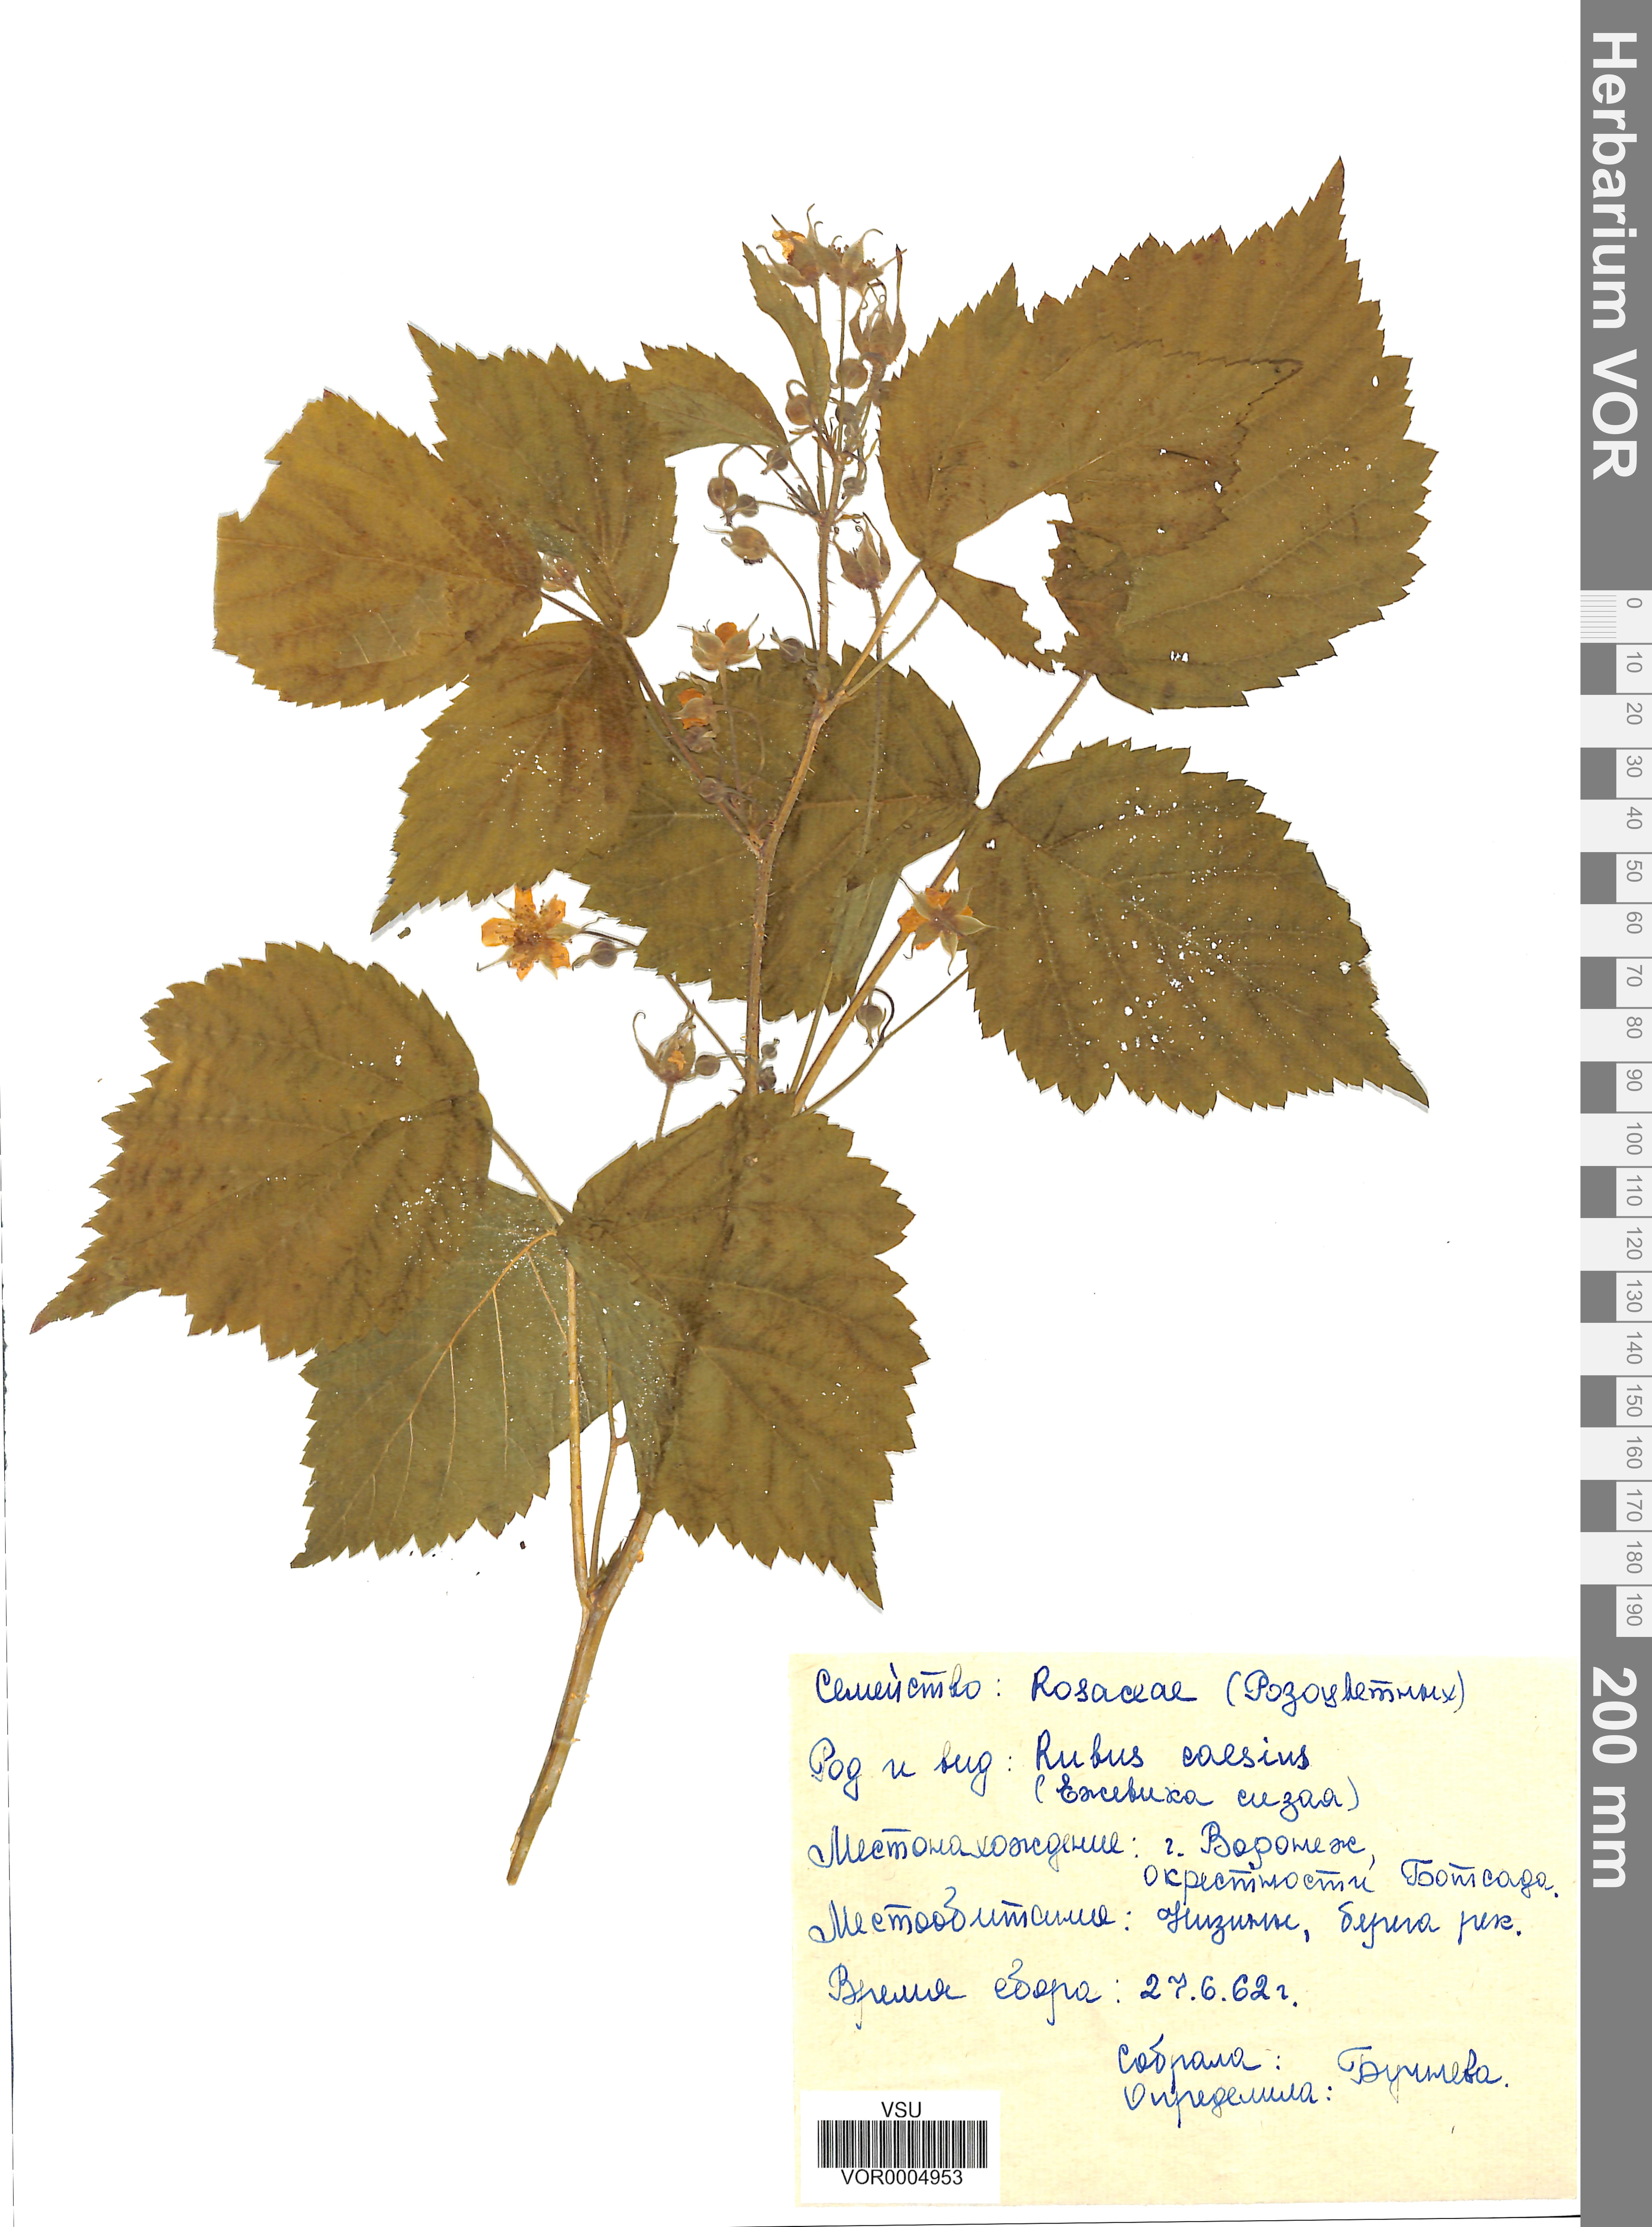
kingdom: Plantae
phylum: Tracheophyta
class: Magnoliopsida
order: Rosales
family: Rosaceae
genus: Rubus
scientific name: Rubus caesius
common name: Dewberry
